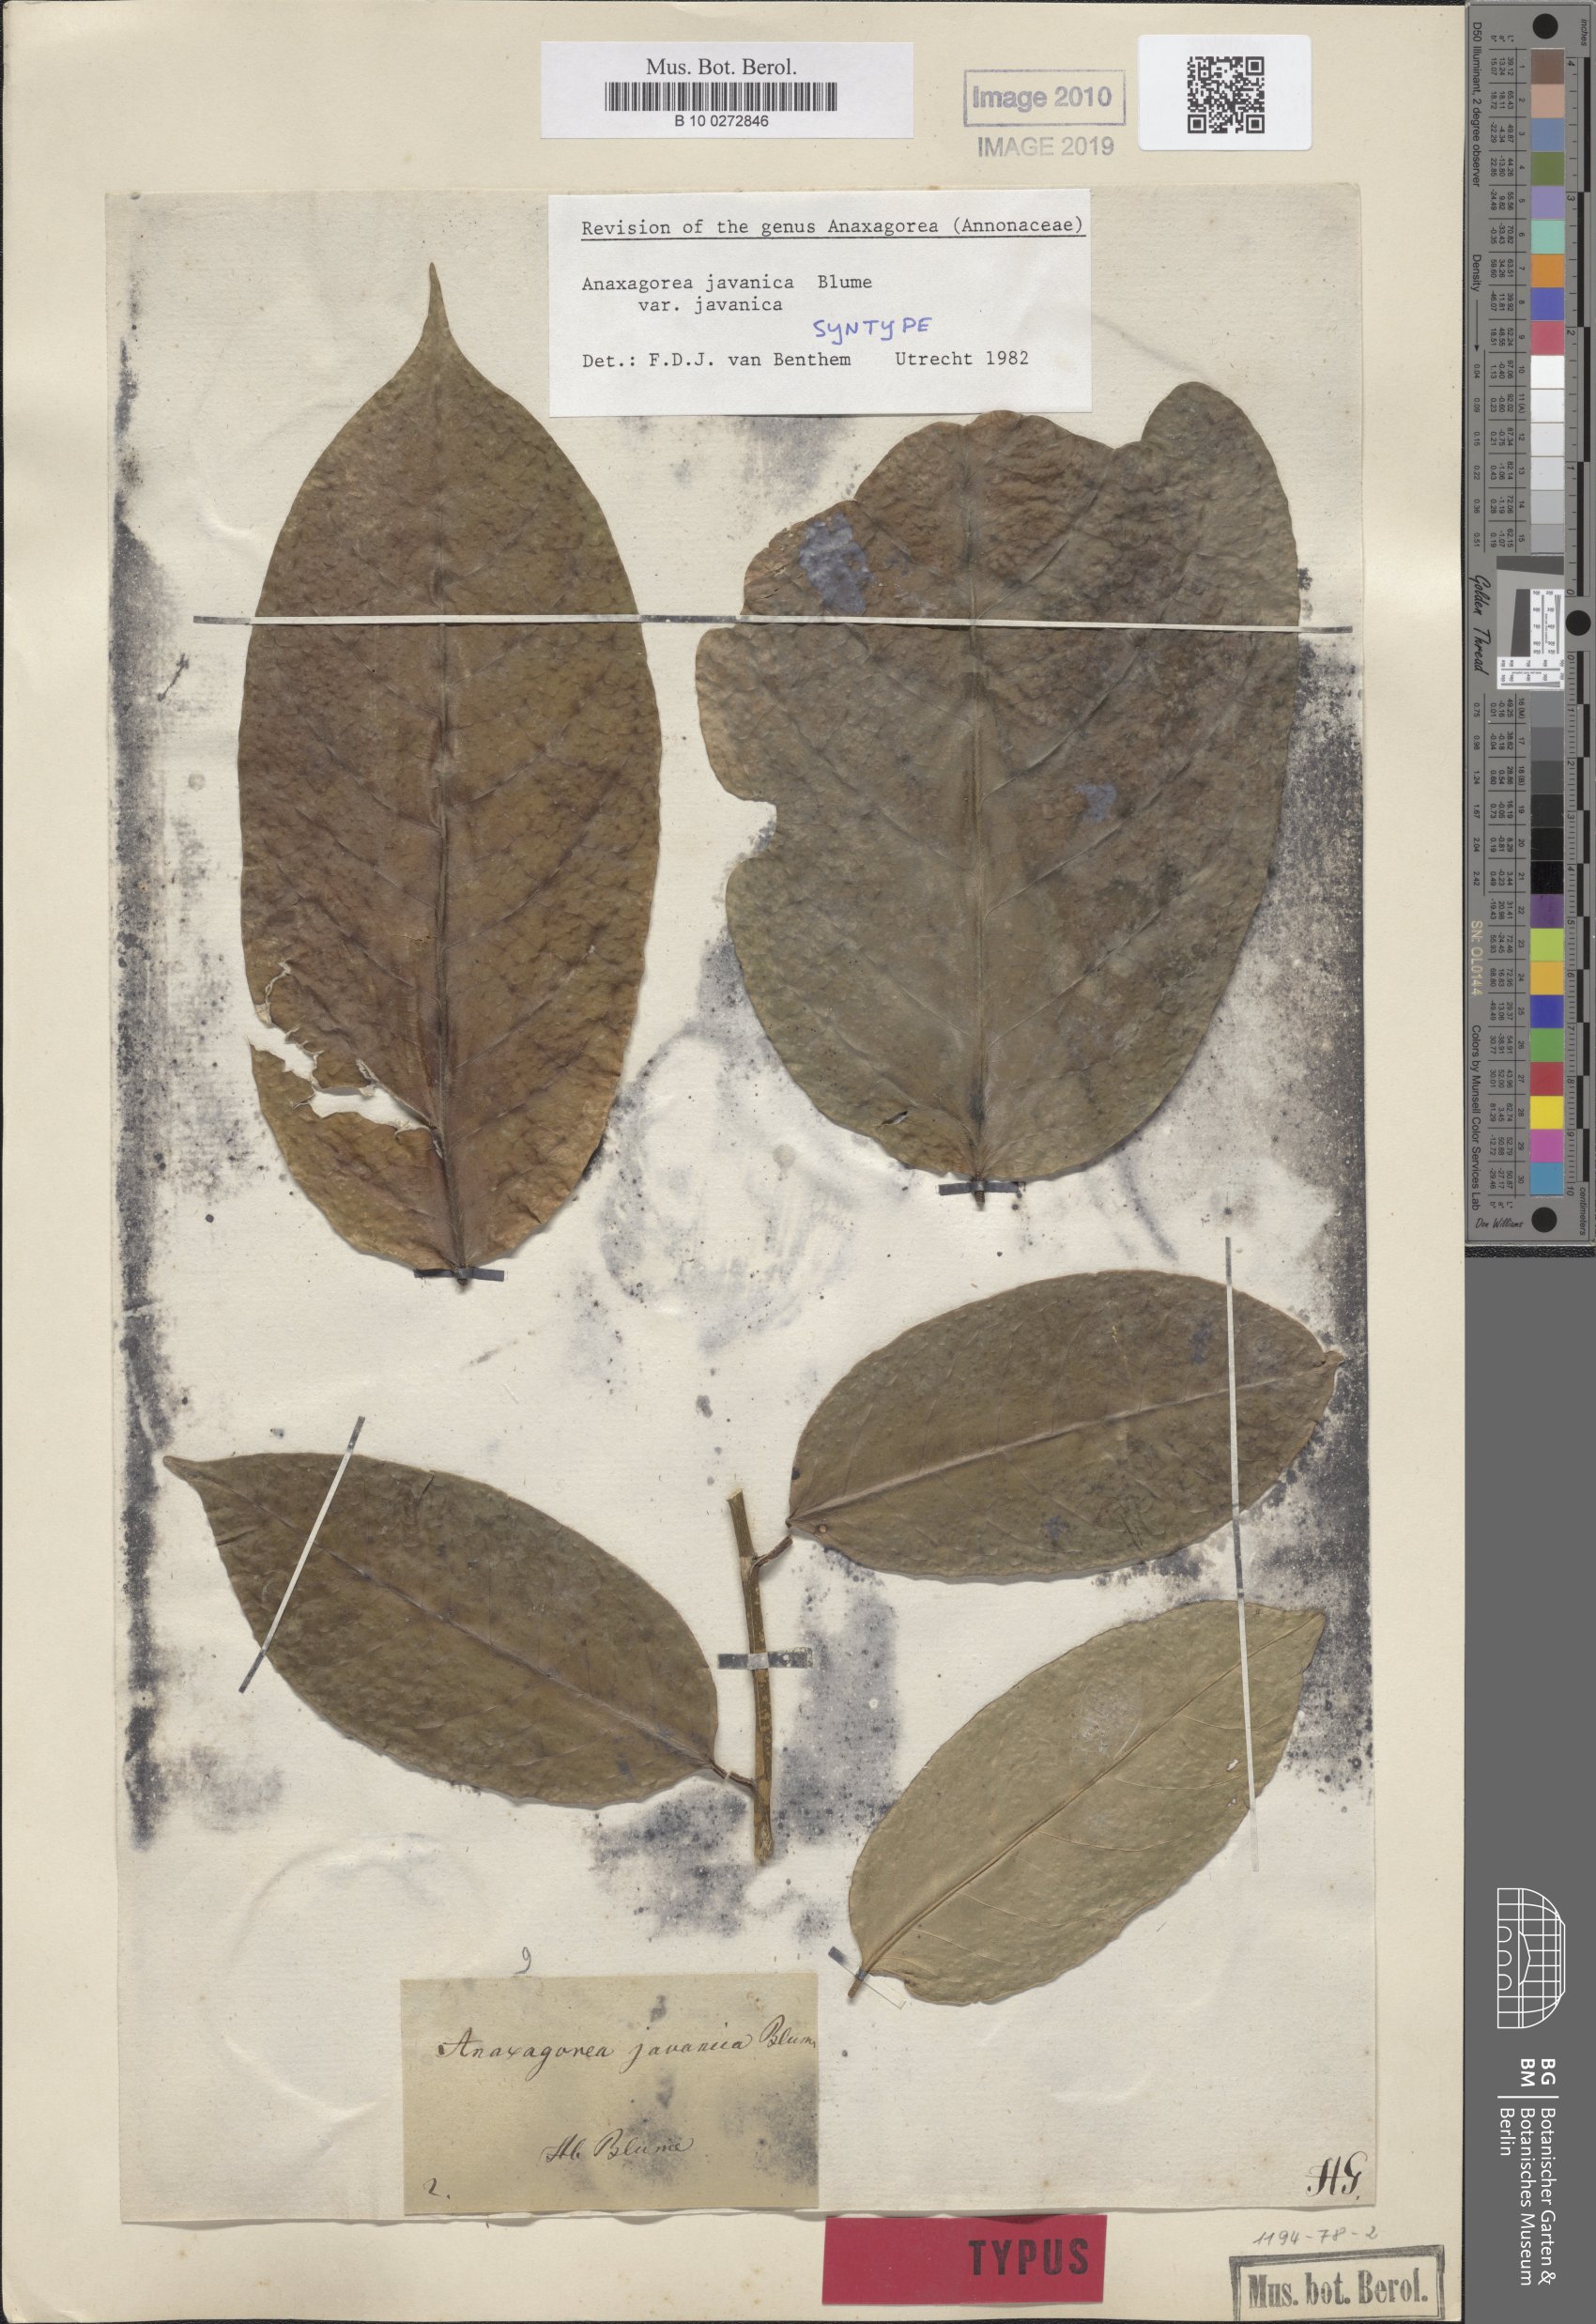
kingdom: Plantae
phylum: Tracheophyta
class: Magnoliopsida
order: Magnoliales
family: Annonaceae
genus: Anaxagorea
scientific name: Anaxagorea javanica
